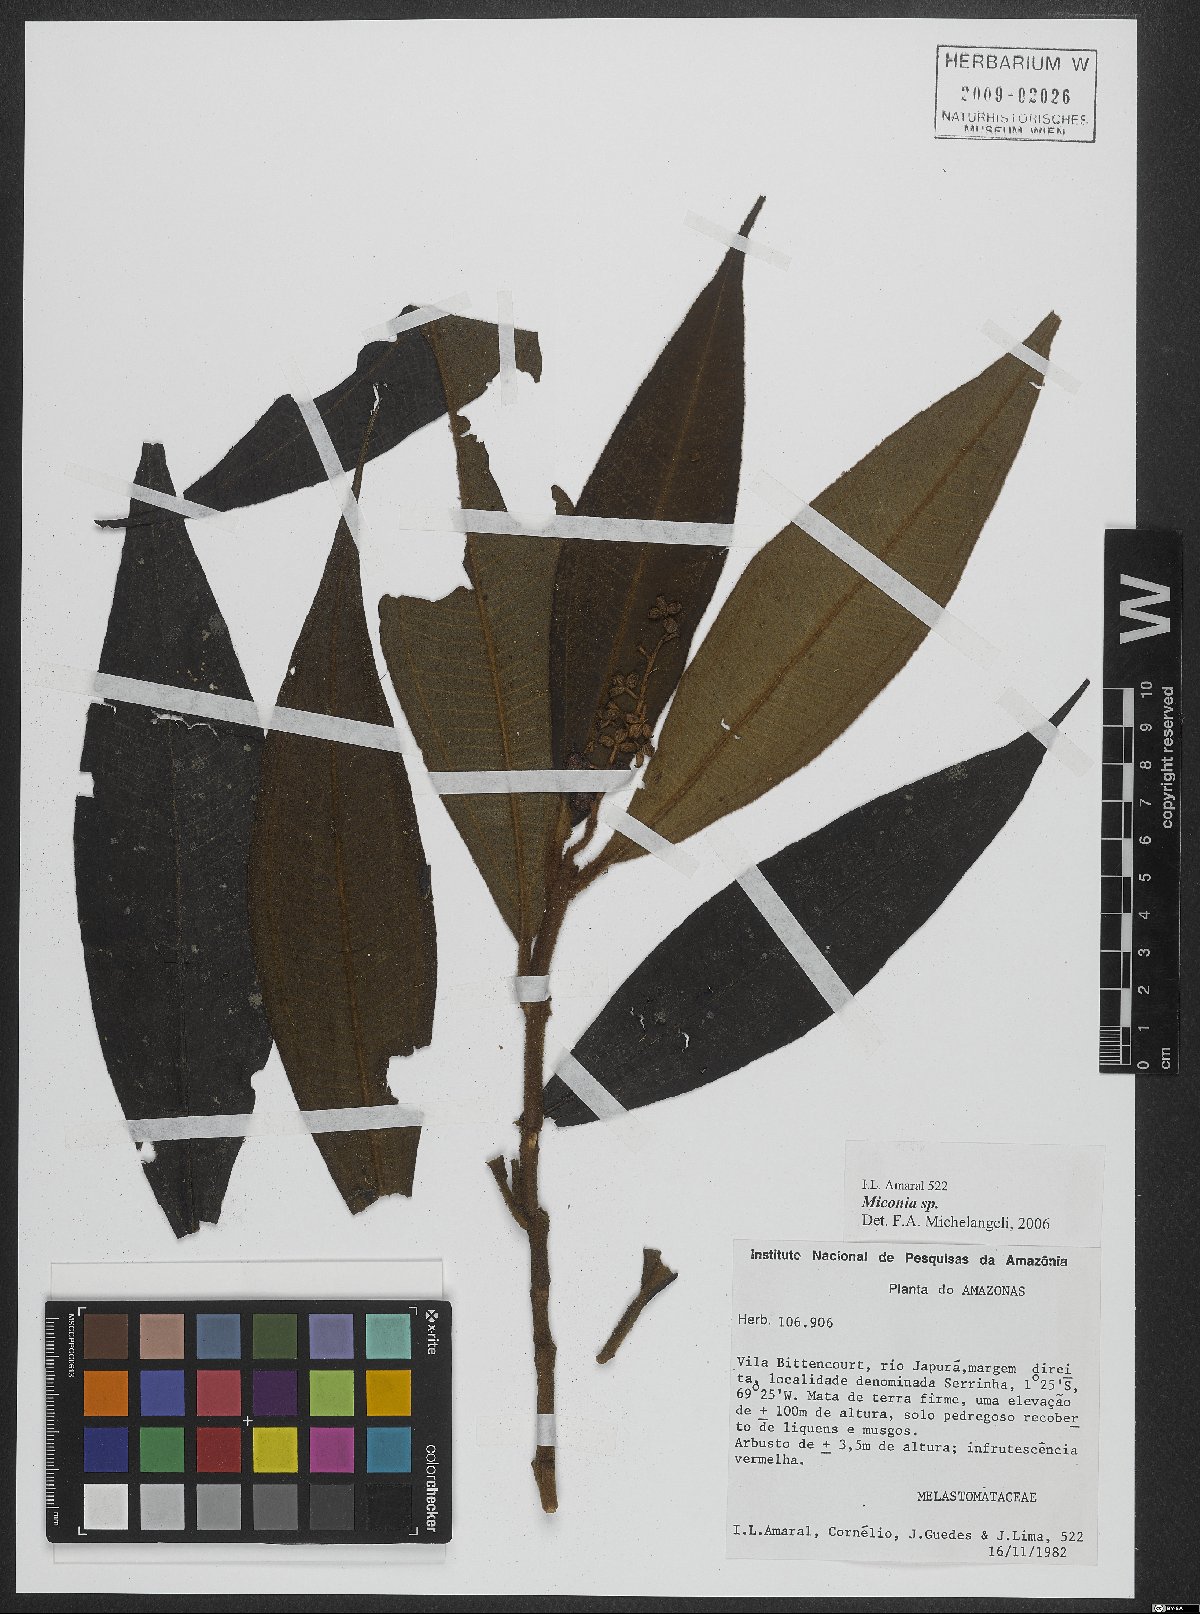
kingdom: Plantae
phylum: Tracheophyta
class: Magnoliopsida
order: Myrtales
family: Melastomataceae
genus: Miconia
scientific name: Miconia
